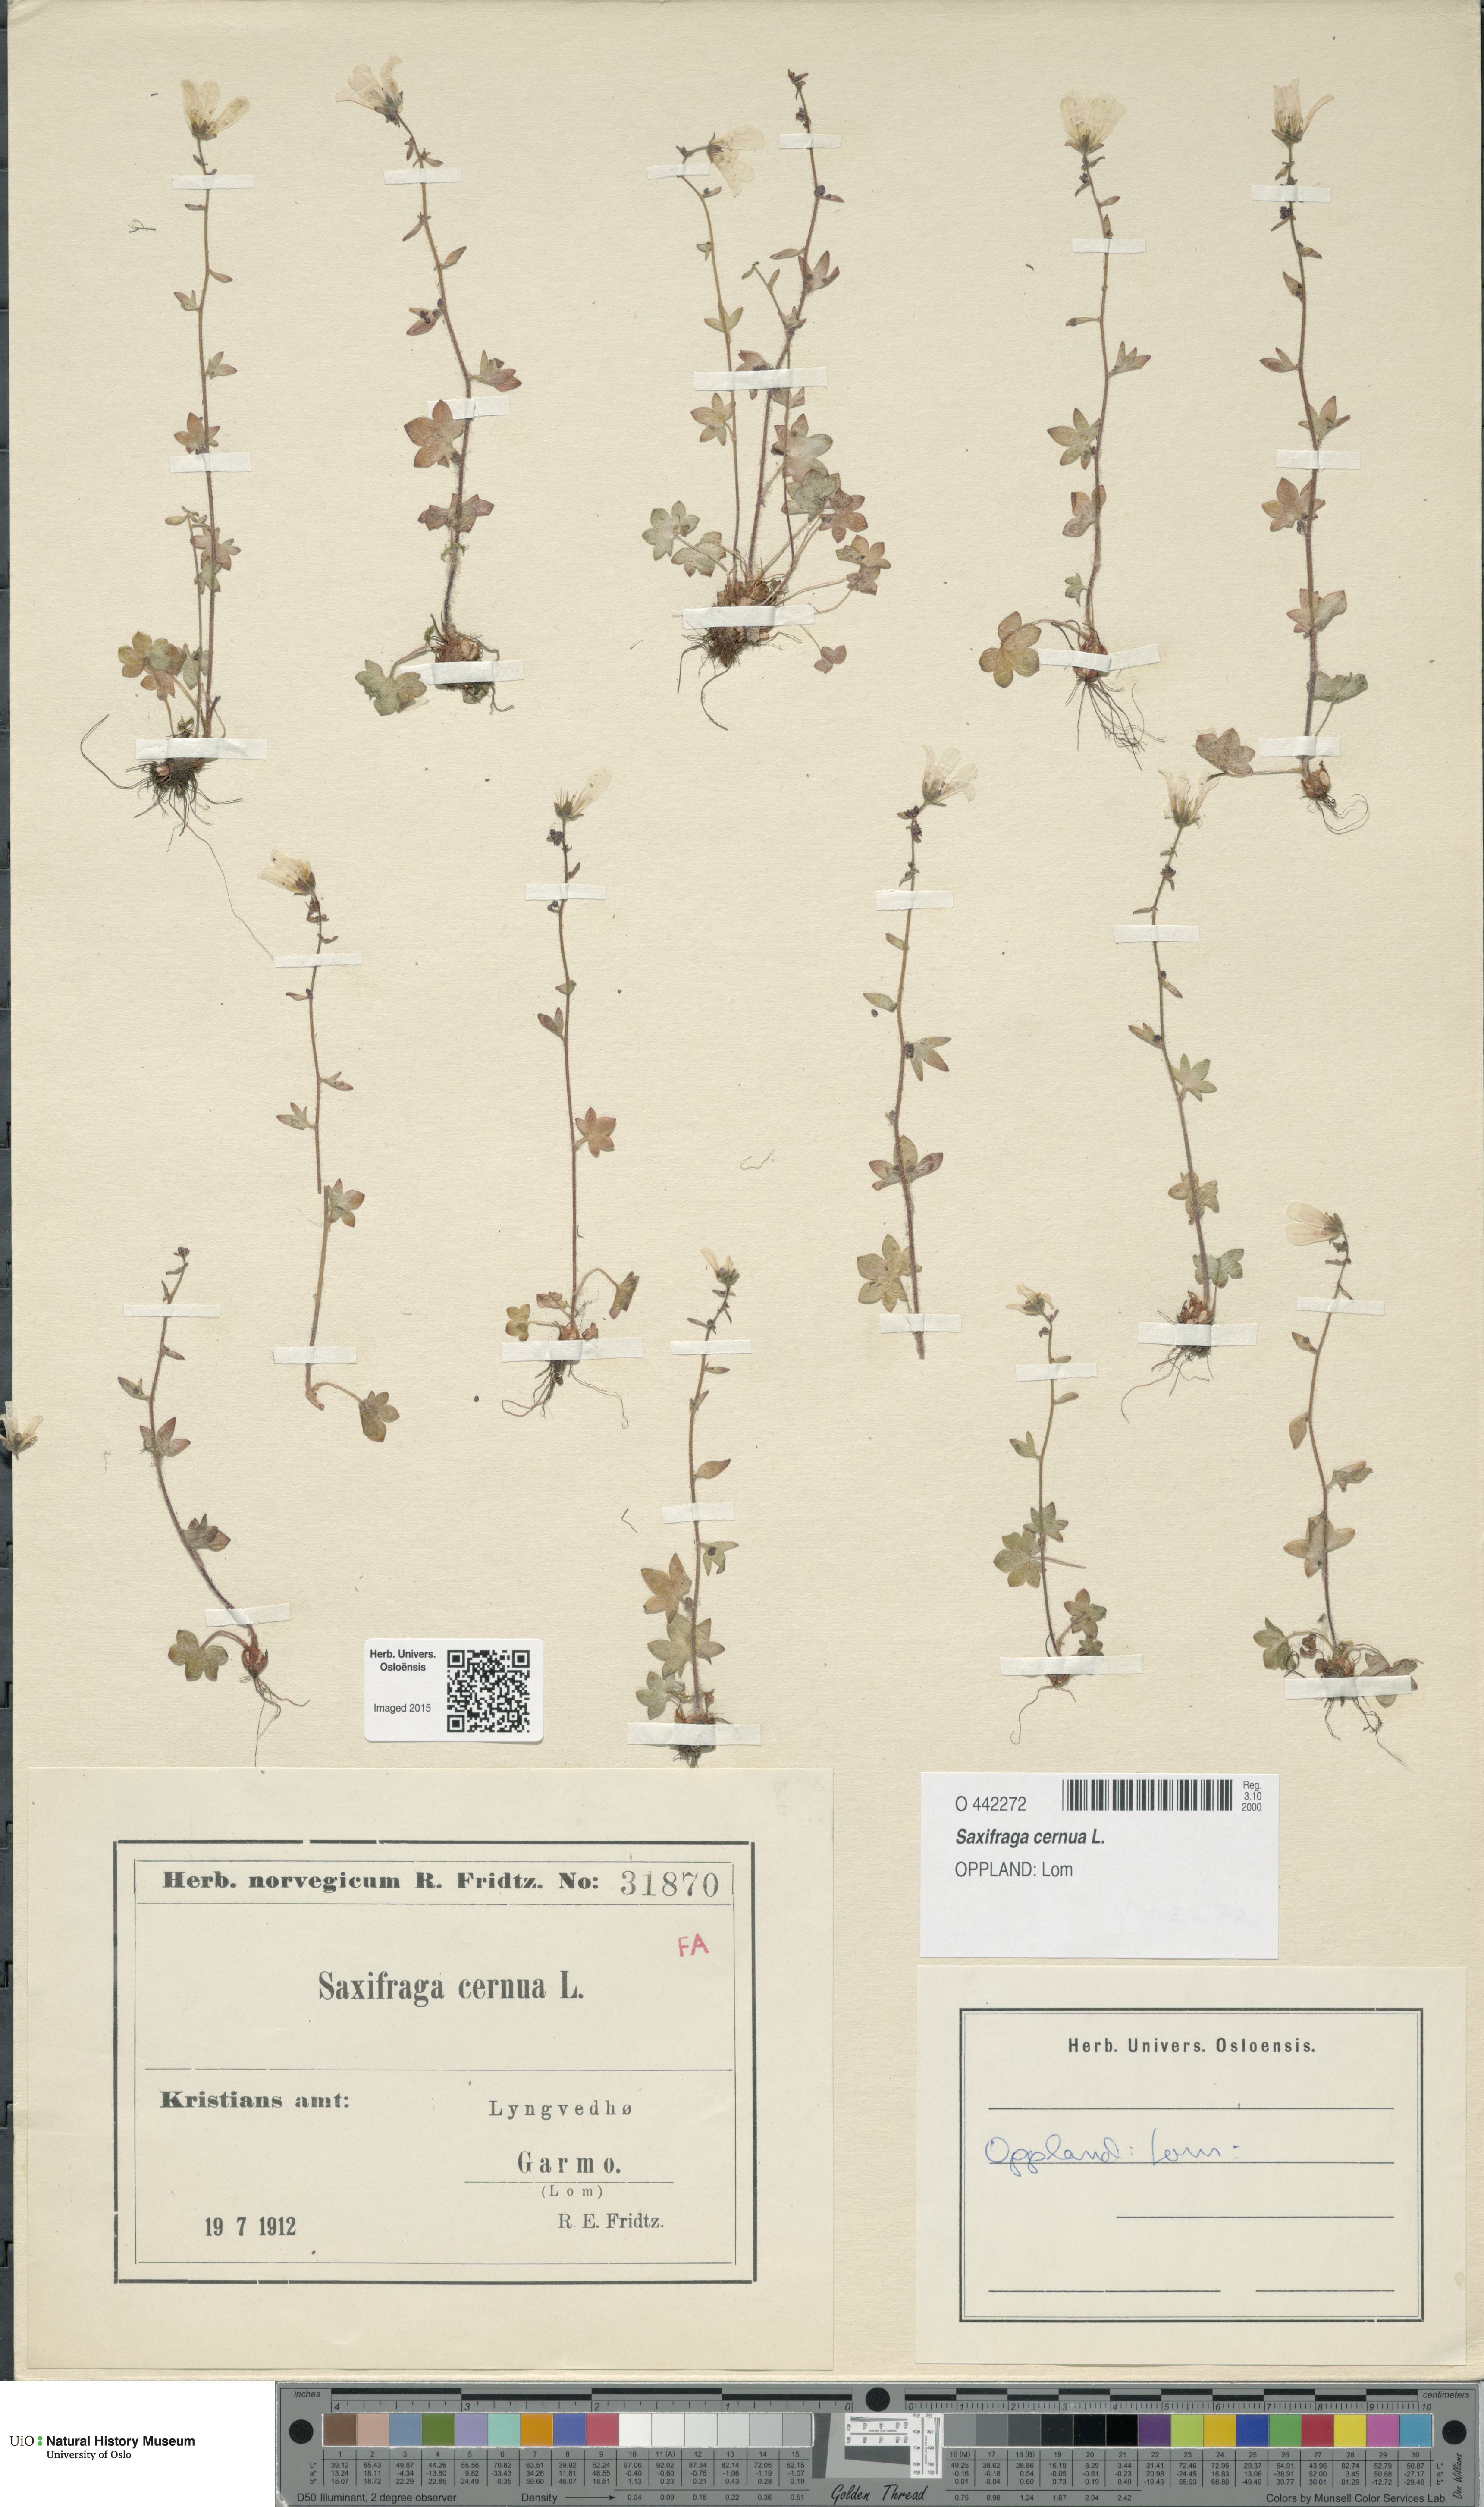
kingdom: Plantae
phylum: Tracheophyta
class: Magnoliopsida
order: Saxifragales
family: Saxifragaceae
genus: Saxifraga
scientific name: Saxifraga cernua
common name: Drooping saxifrage
